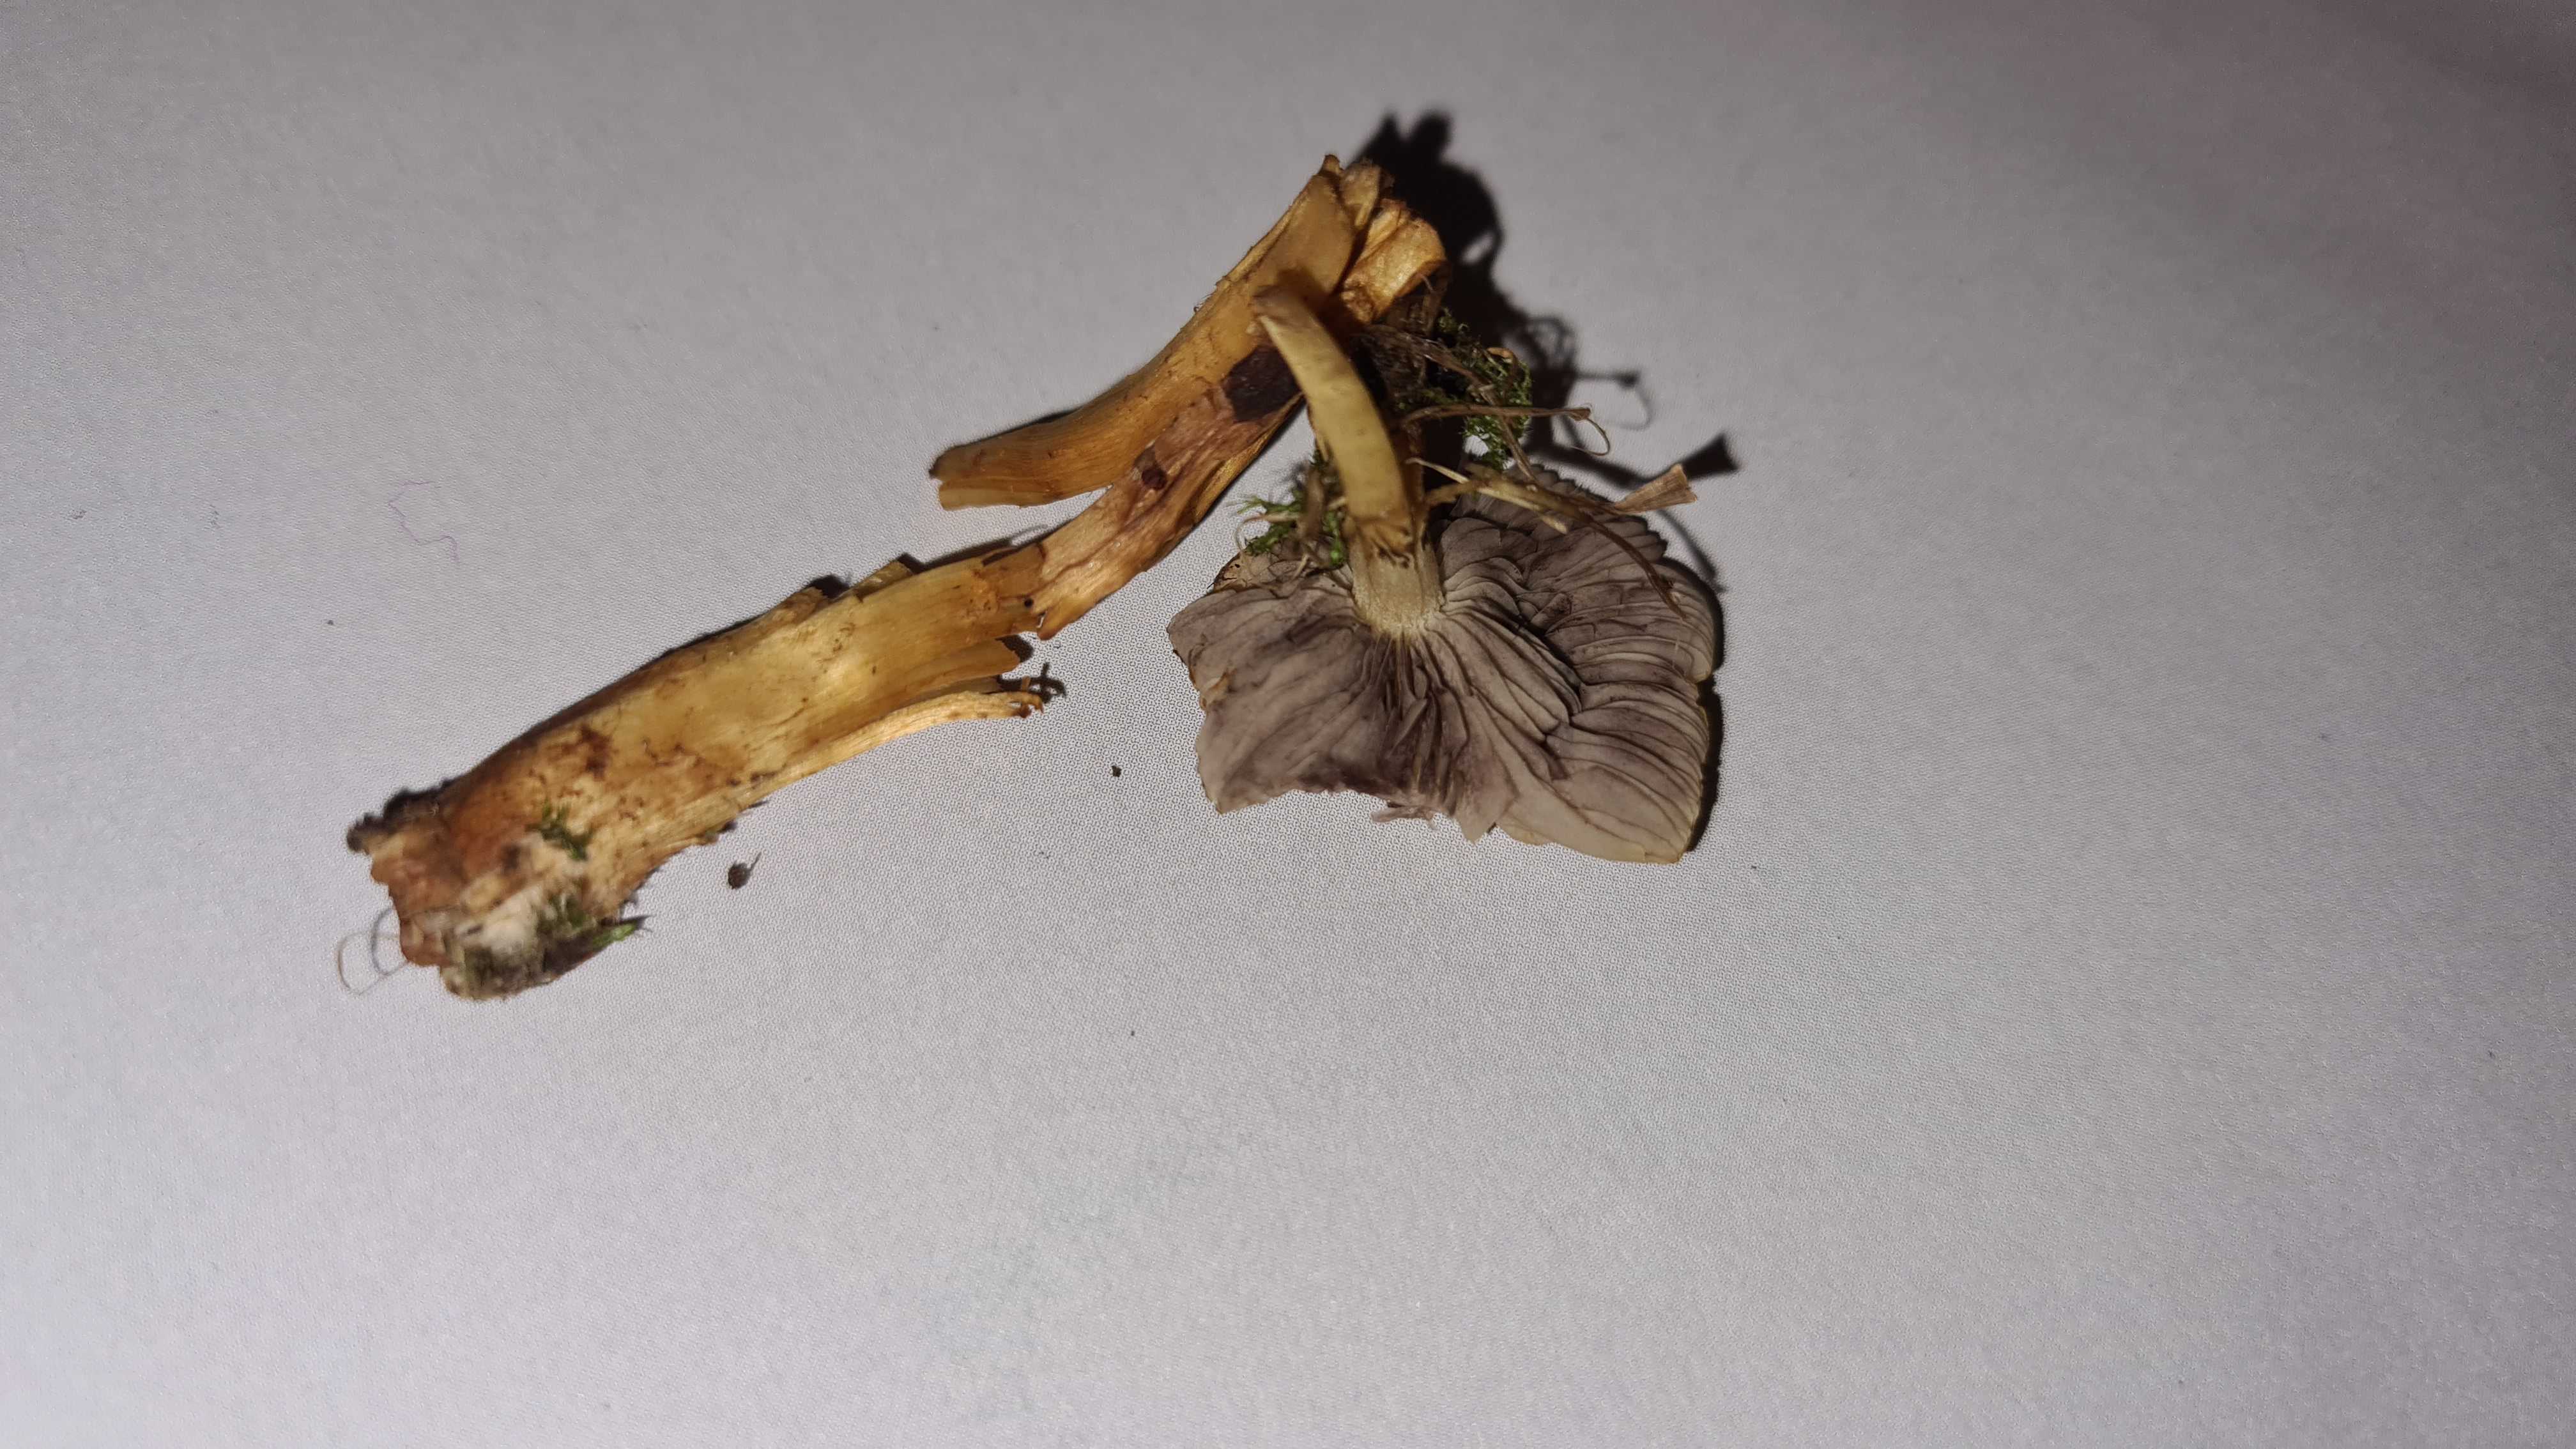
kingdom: Fungi
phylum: Basidiomycota
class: Agaricomycetes
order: Agaricales
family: Strophariaceae
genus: Hypholoma
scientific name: Hypholoma capnoides
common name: gran-svovlhat
